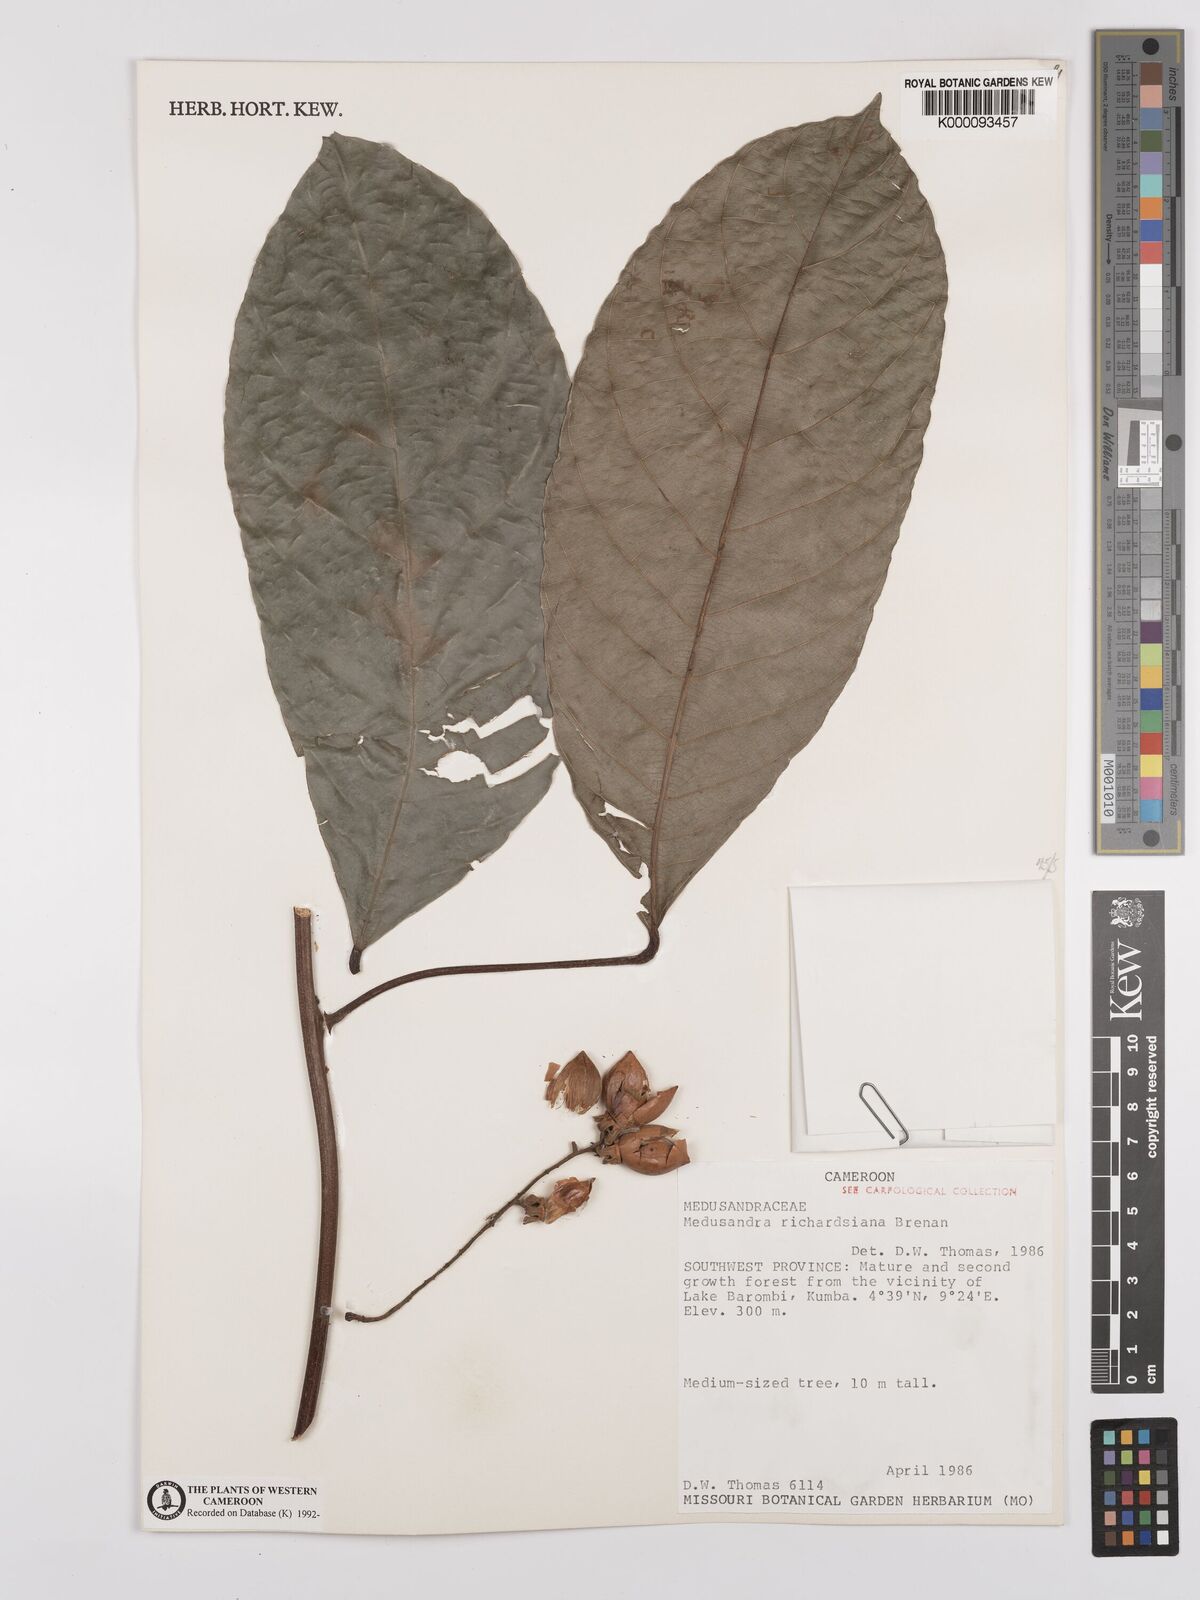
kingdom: Plantae
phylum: Tracheophyta
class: Magnoliopsida
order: Saxifragales
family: Peridiscaceae
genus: Medusandra
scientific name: Medusandra richardsiana
